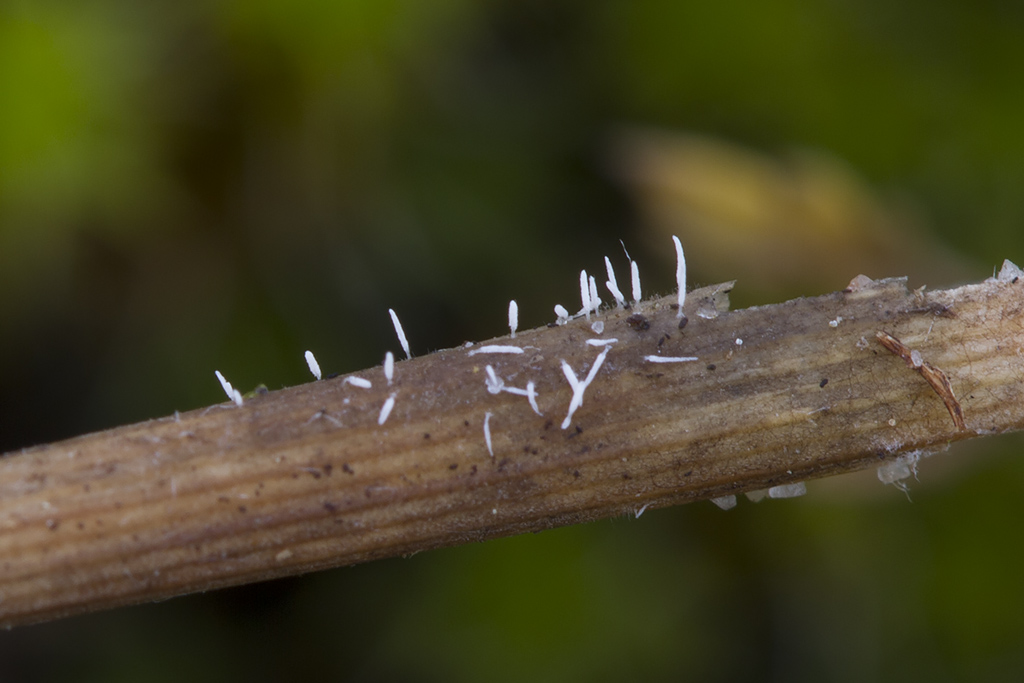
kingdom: Fungi
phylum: Basidiomycota
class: Agaricomycetes
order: Gomphales
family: Gomphaceae
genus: Ceratellopsis
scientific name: Ceratellopsis acuminata
